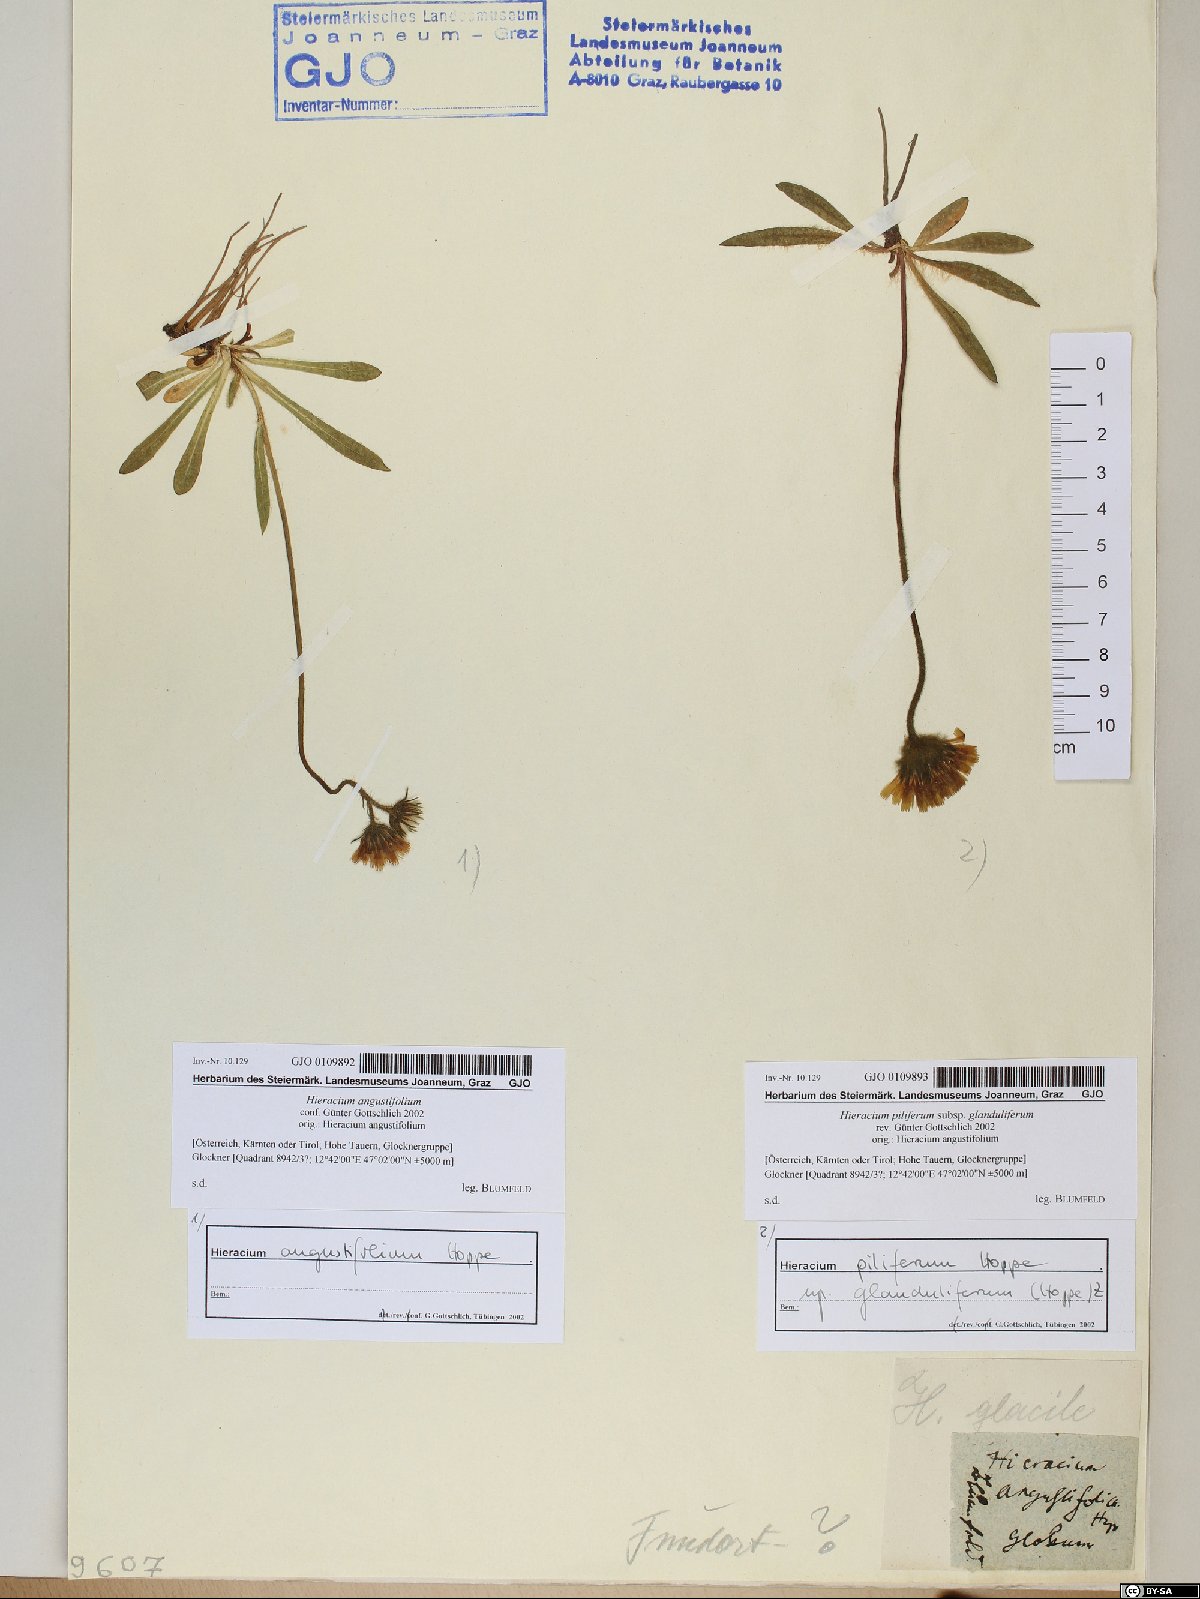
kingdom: Plantae
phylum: Tracheophyta
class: Magnoliopsida
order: Asterales
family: Asteraceae
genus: Pilosella
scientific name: Pilosella glacialis
